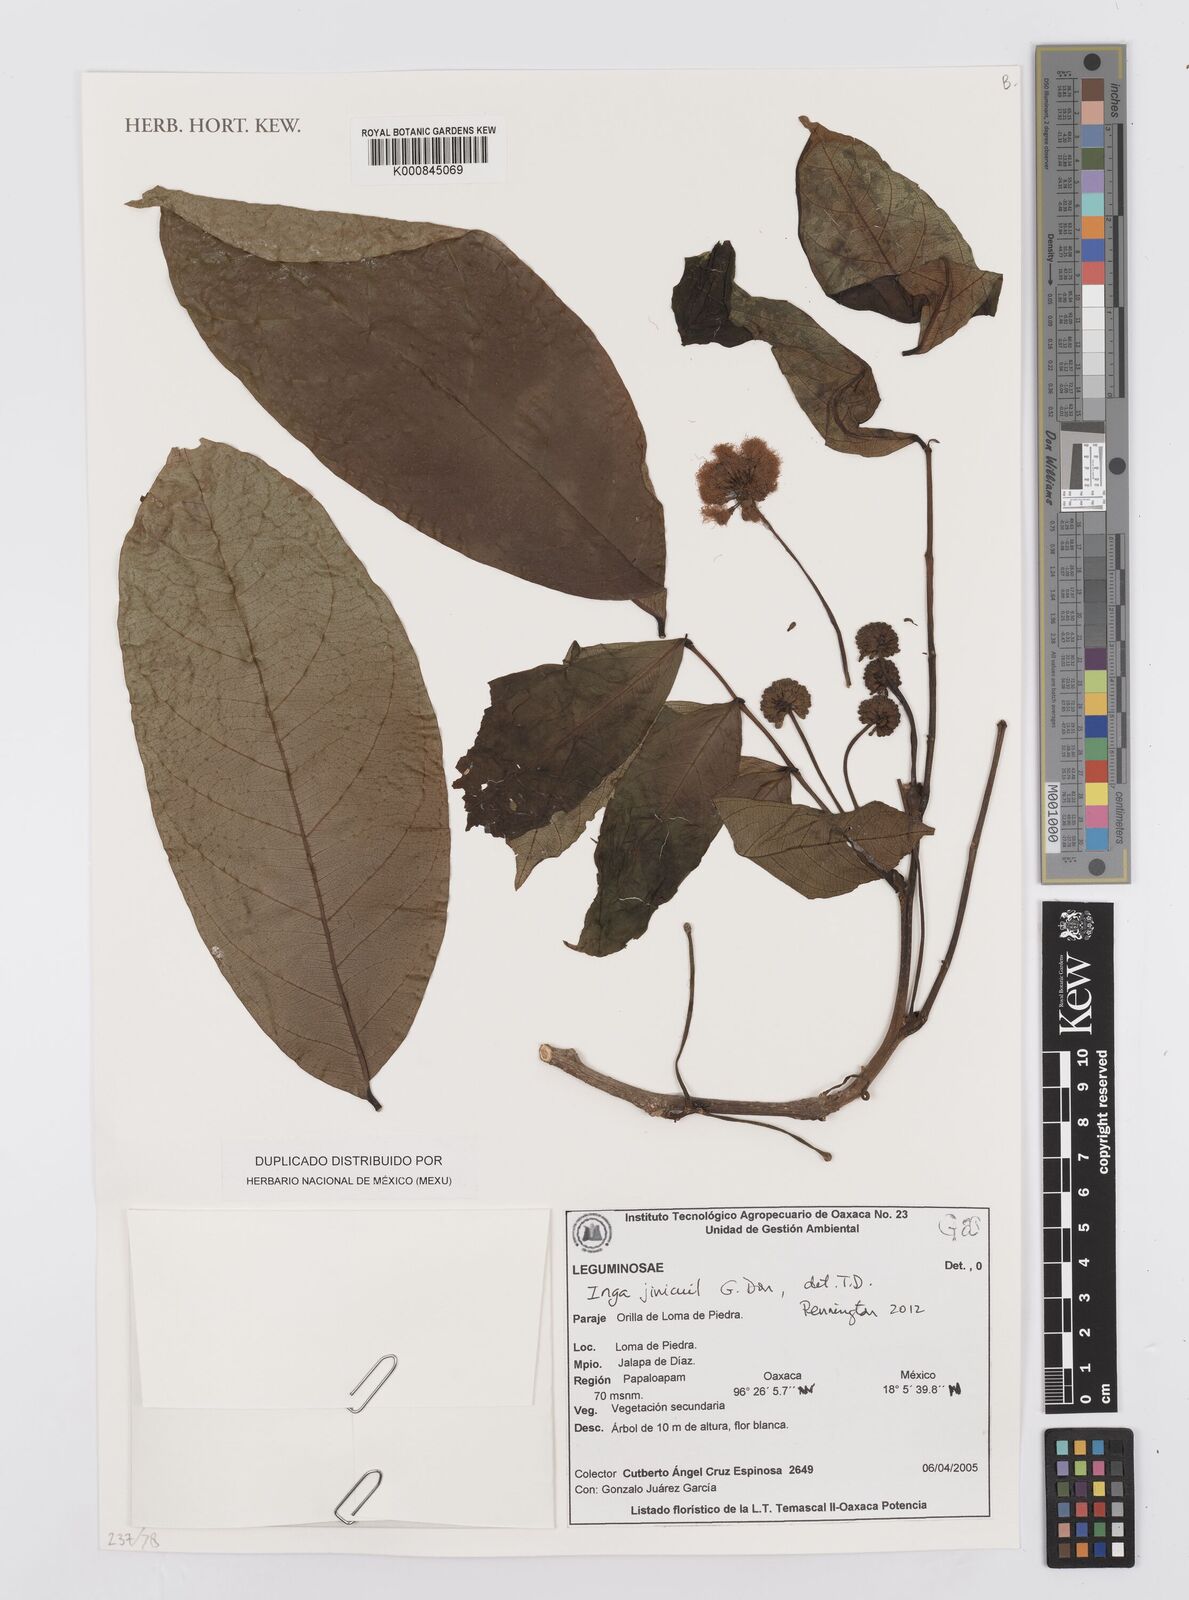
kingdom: Plantae
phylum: Tracheophyta
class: Magnoliopsida
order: Fabales
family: Fabaceae
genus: Inga
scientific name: Inga inicuil
